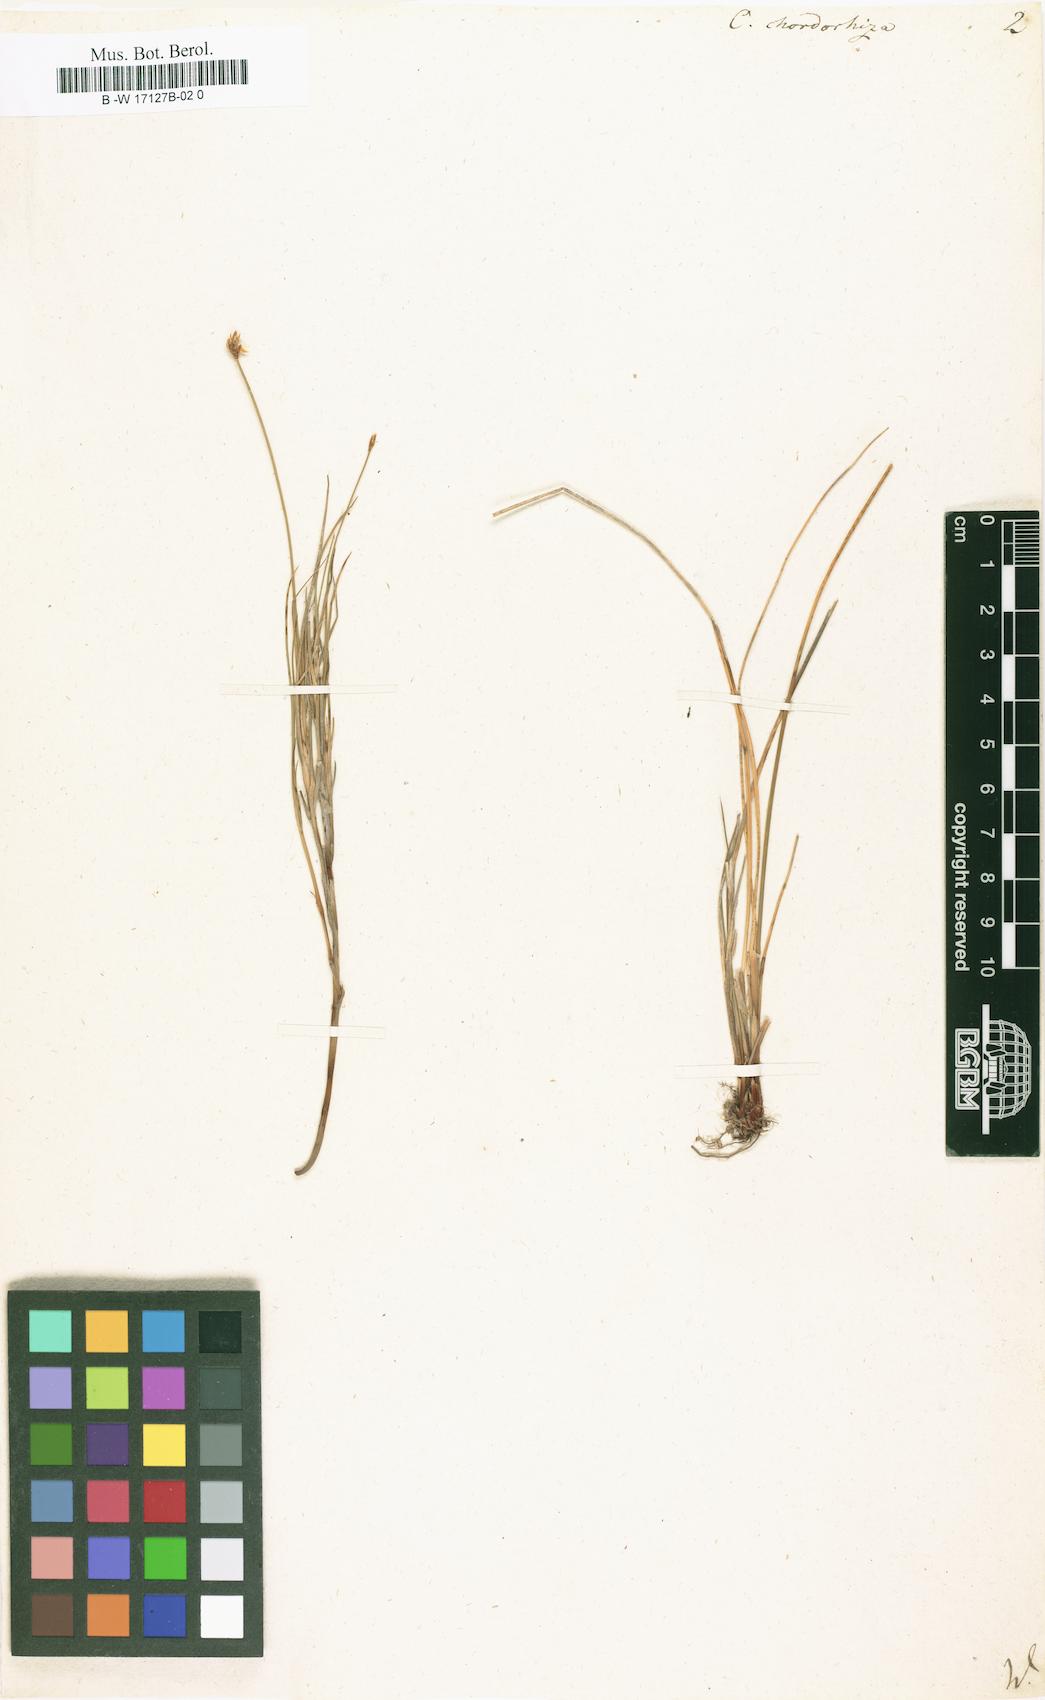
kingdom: Plantae
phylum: Tracheophyta
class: Liliopsida
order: Poales
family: Cyperaceae
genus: Carex
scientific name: Carex chordorrhiza
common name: String sedge
